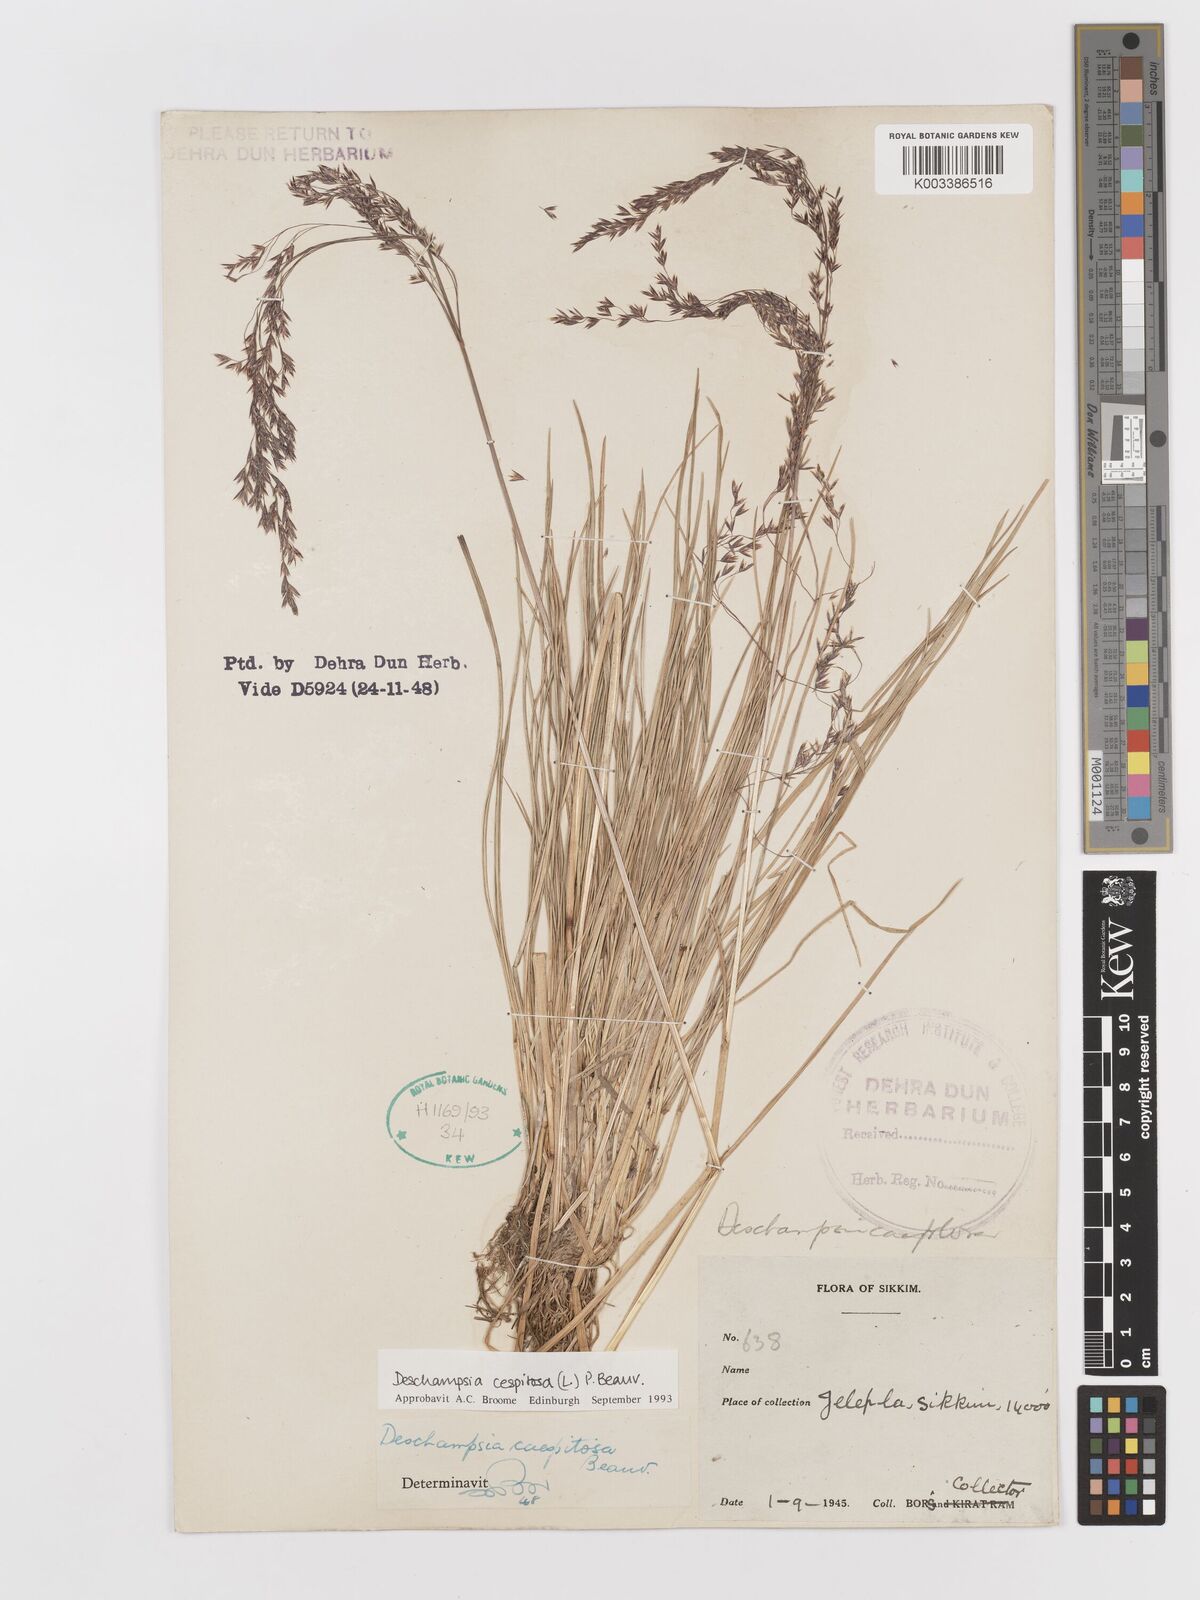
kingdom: Plantae
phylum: Tracheophyta
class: Liliopsida
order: Poales
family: Poaceae
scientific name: Poaceae
